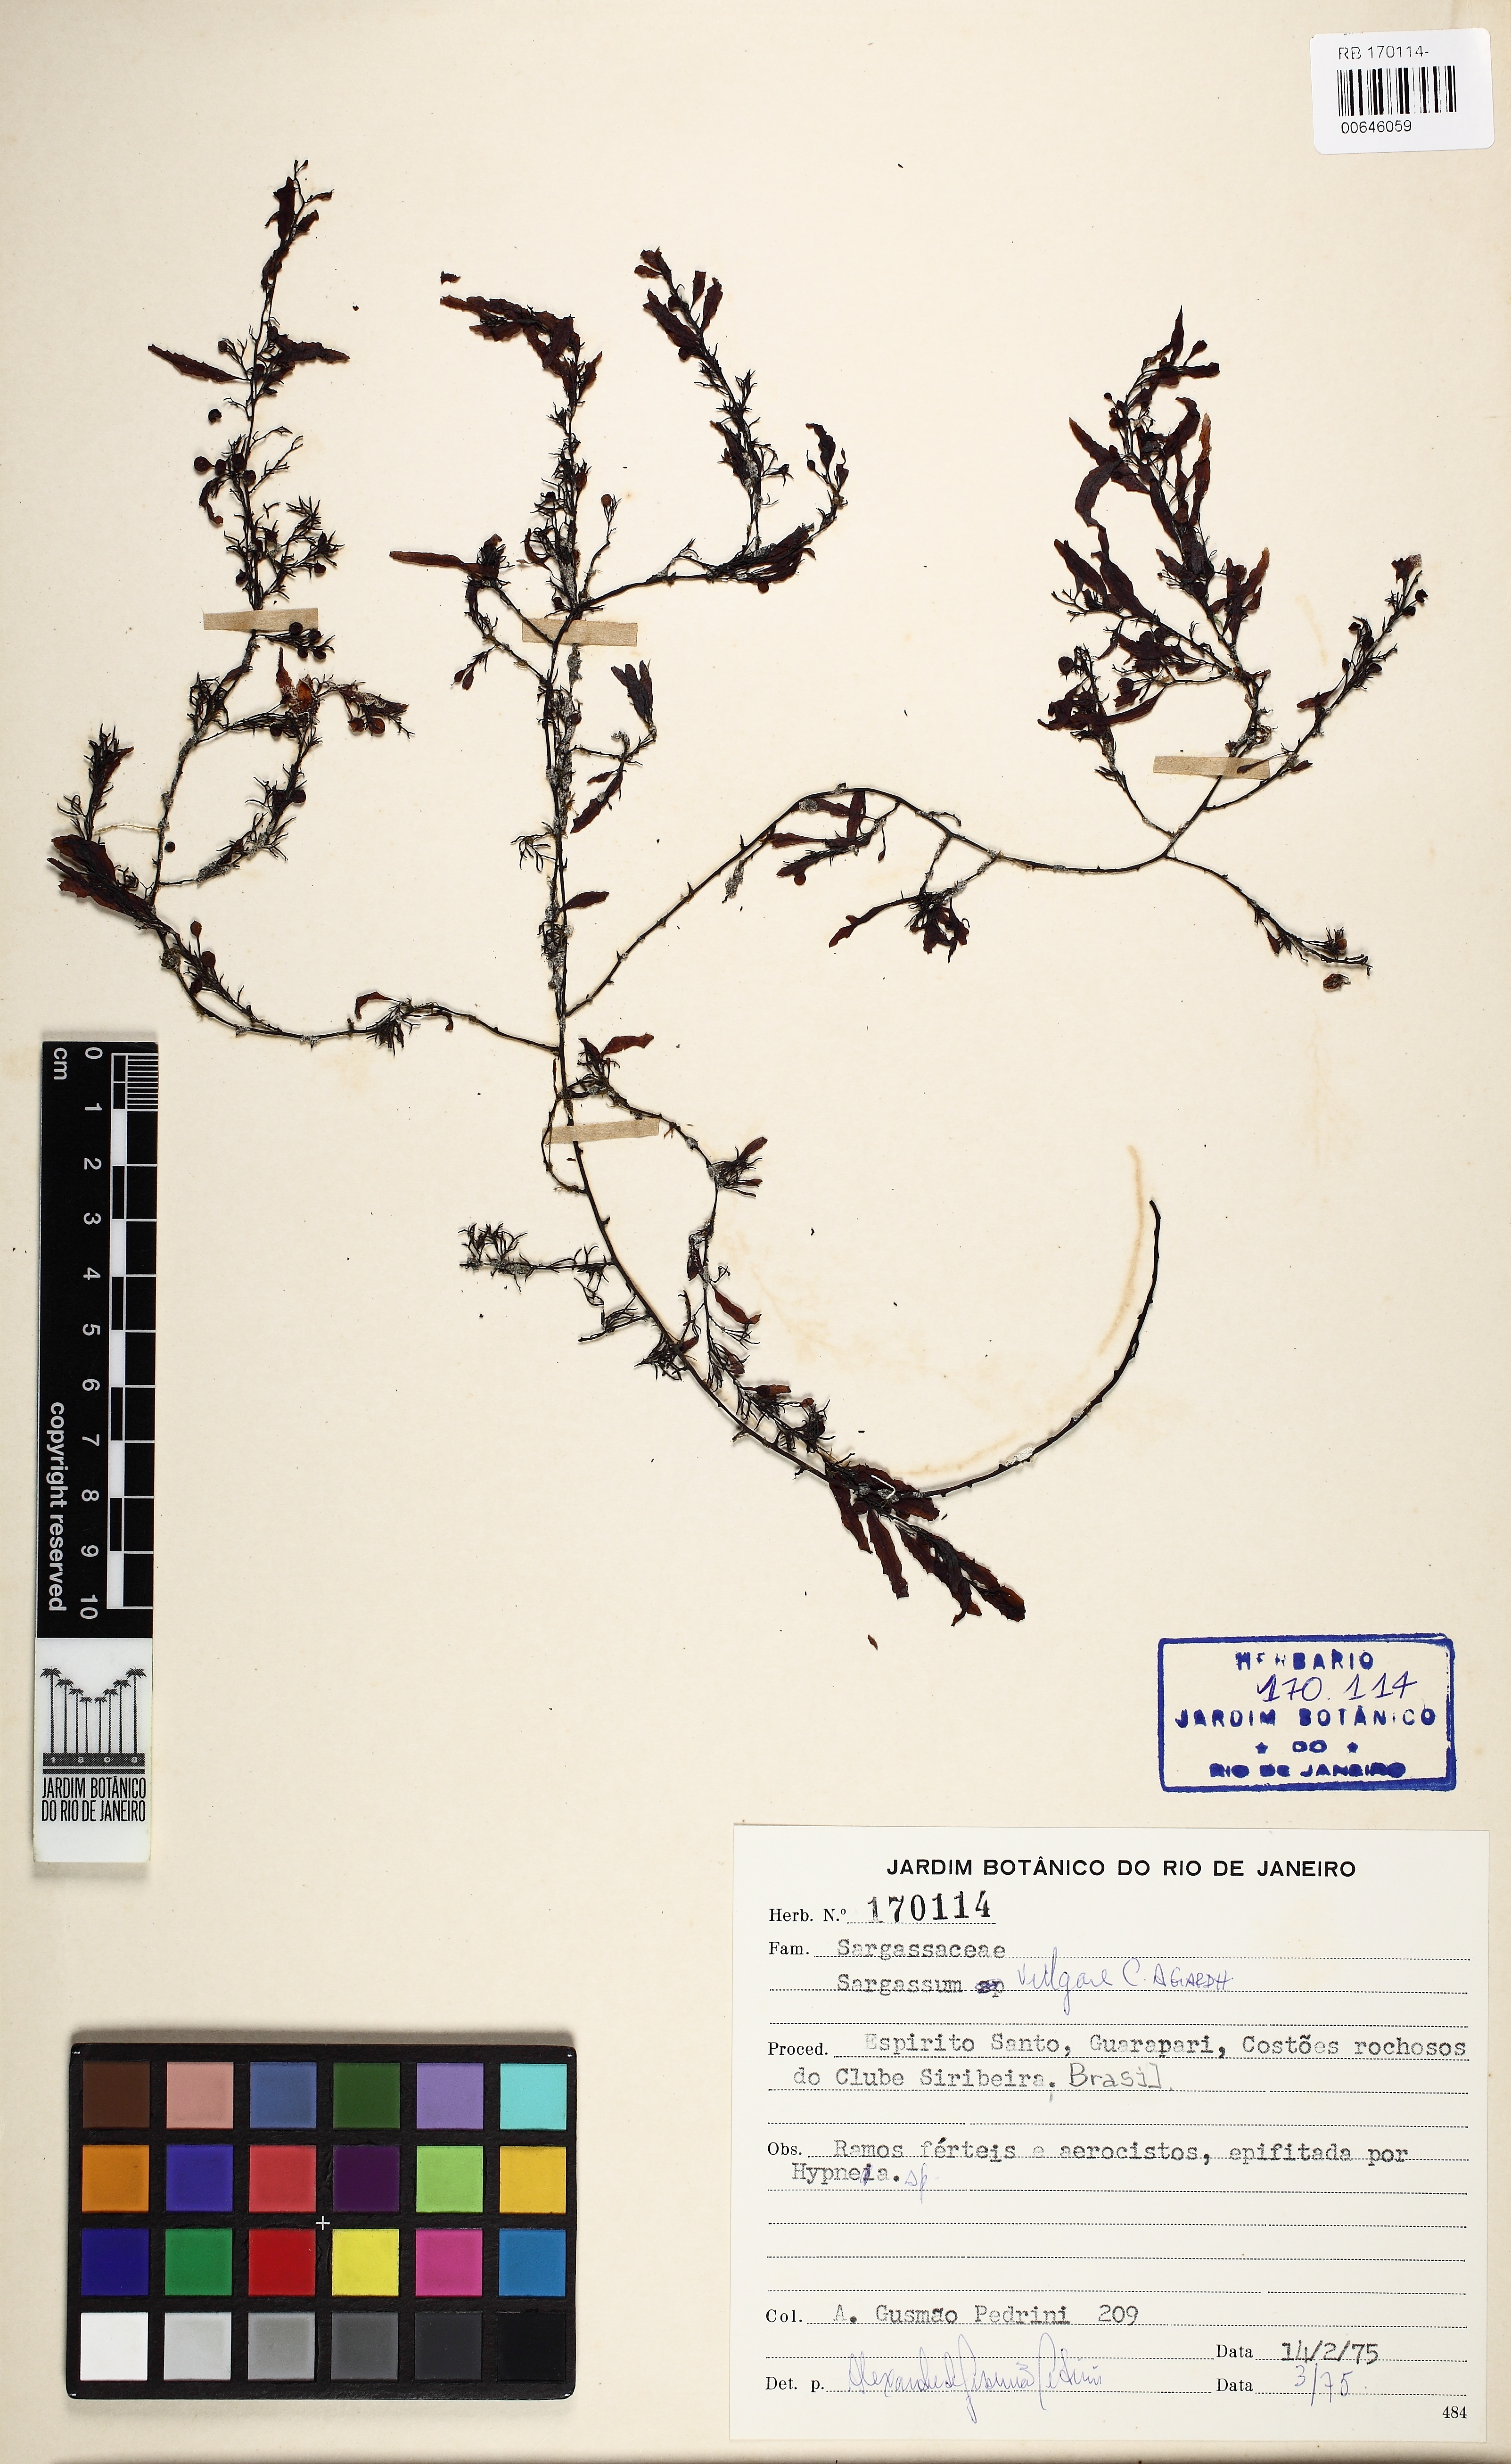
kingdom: Chromista
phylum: Ochrophyta
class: Phaeophyceae
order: Fucales
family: Sargassaceae
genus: Sargassum
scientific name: Sargassum vulgare
